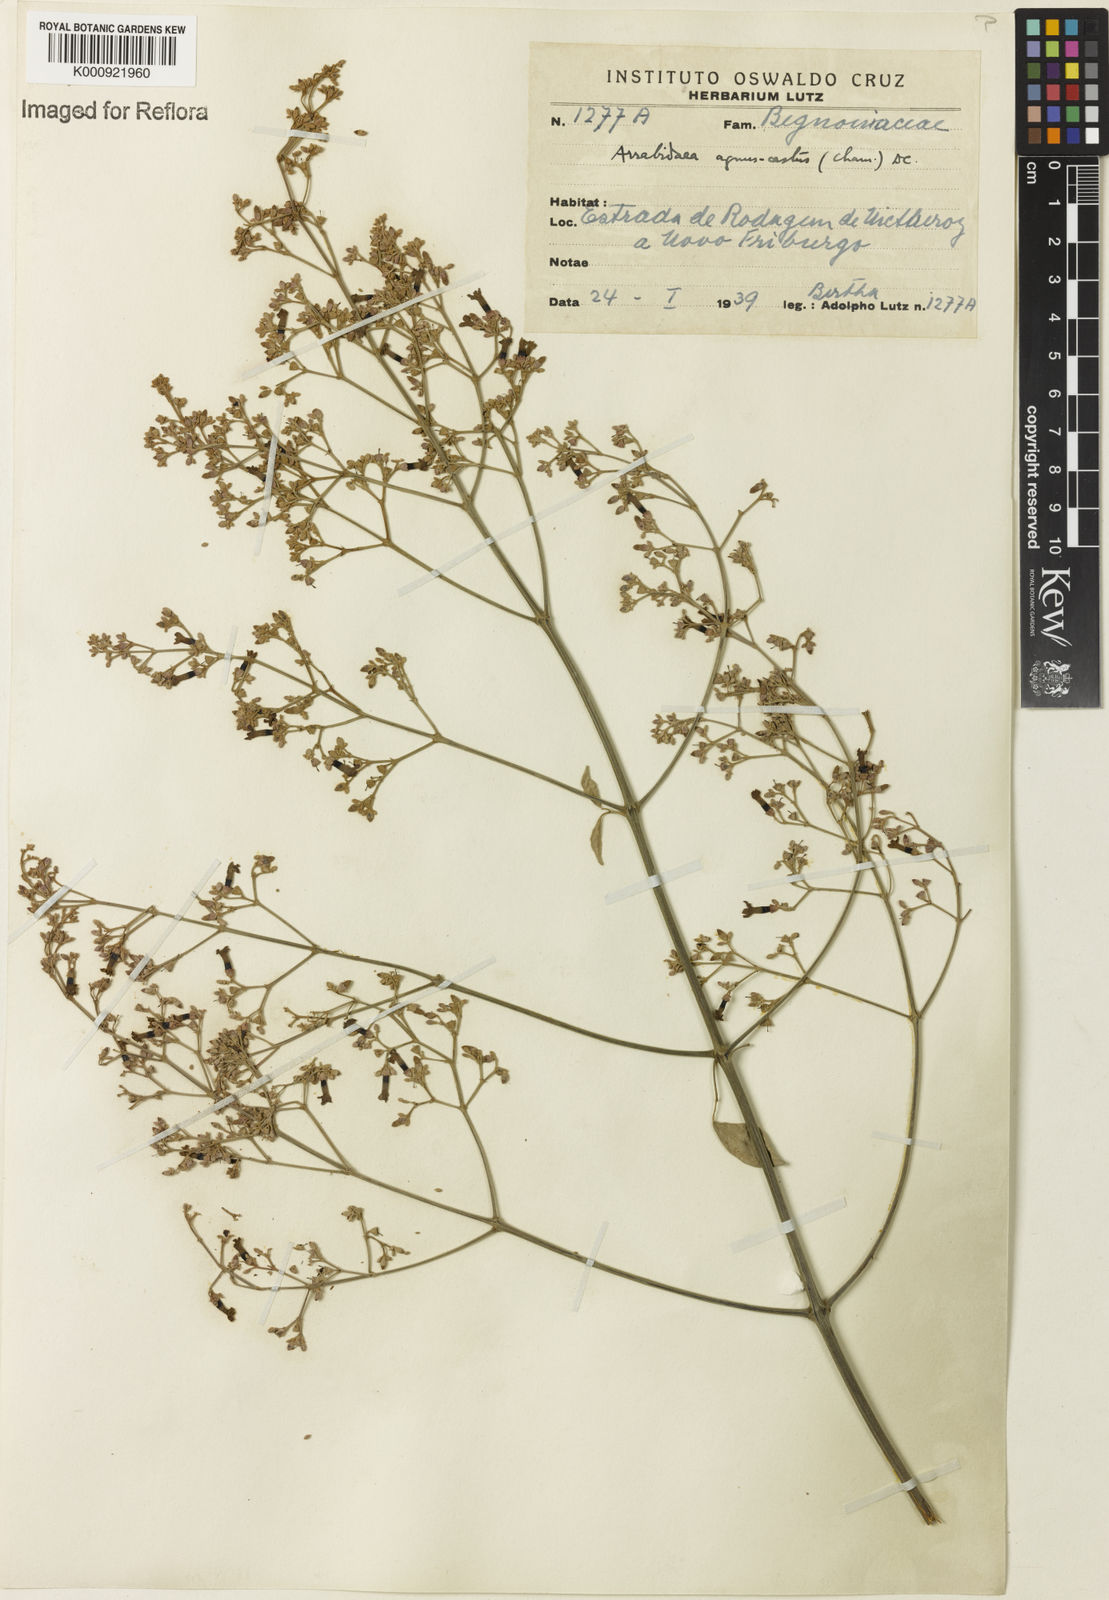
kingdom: Plantae
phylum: Tracheophyta
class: Magnoliopsida
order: Lamiales
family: Bignoniaceae
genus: Fridericia
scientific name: Fridericia rego
